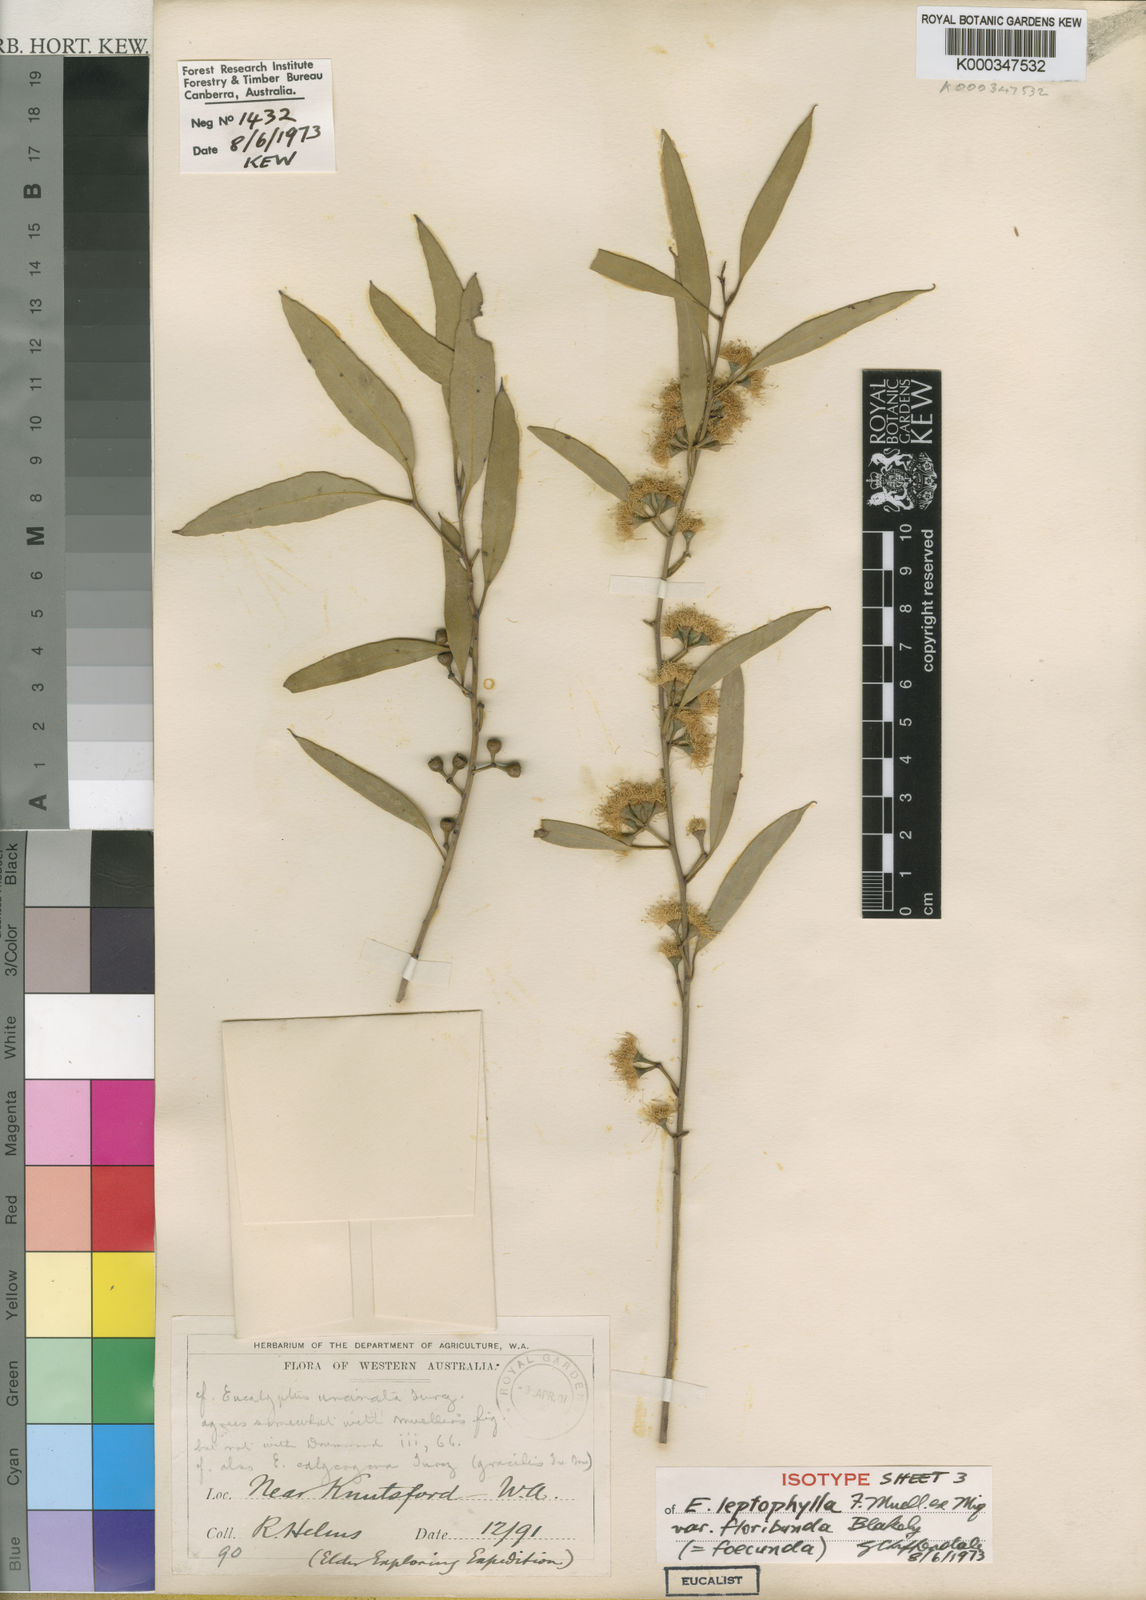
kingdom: Plantae
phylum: Tracheophyta
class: Magnoliopsida
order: Myrtales
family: Myrtaceae
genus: Eucalyptus
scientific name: Eucalyptus foecunda
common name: Freemantle mallee
